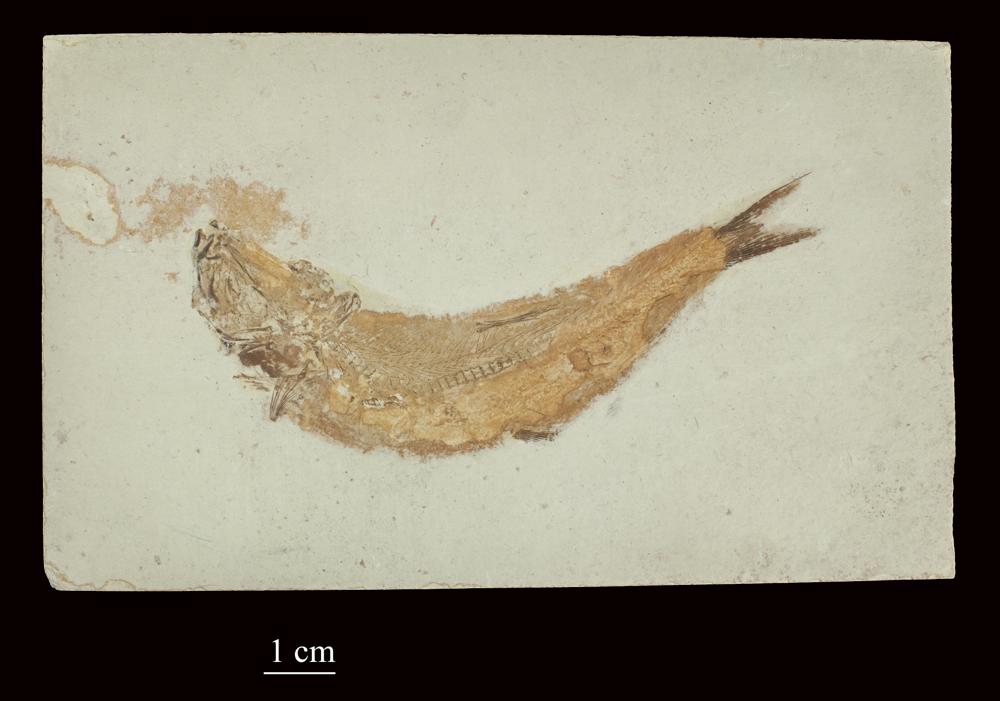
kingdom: Animalia
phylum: Chordata
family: Ascalaboidae
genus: Tharsis
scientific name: Tharsis dubius
